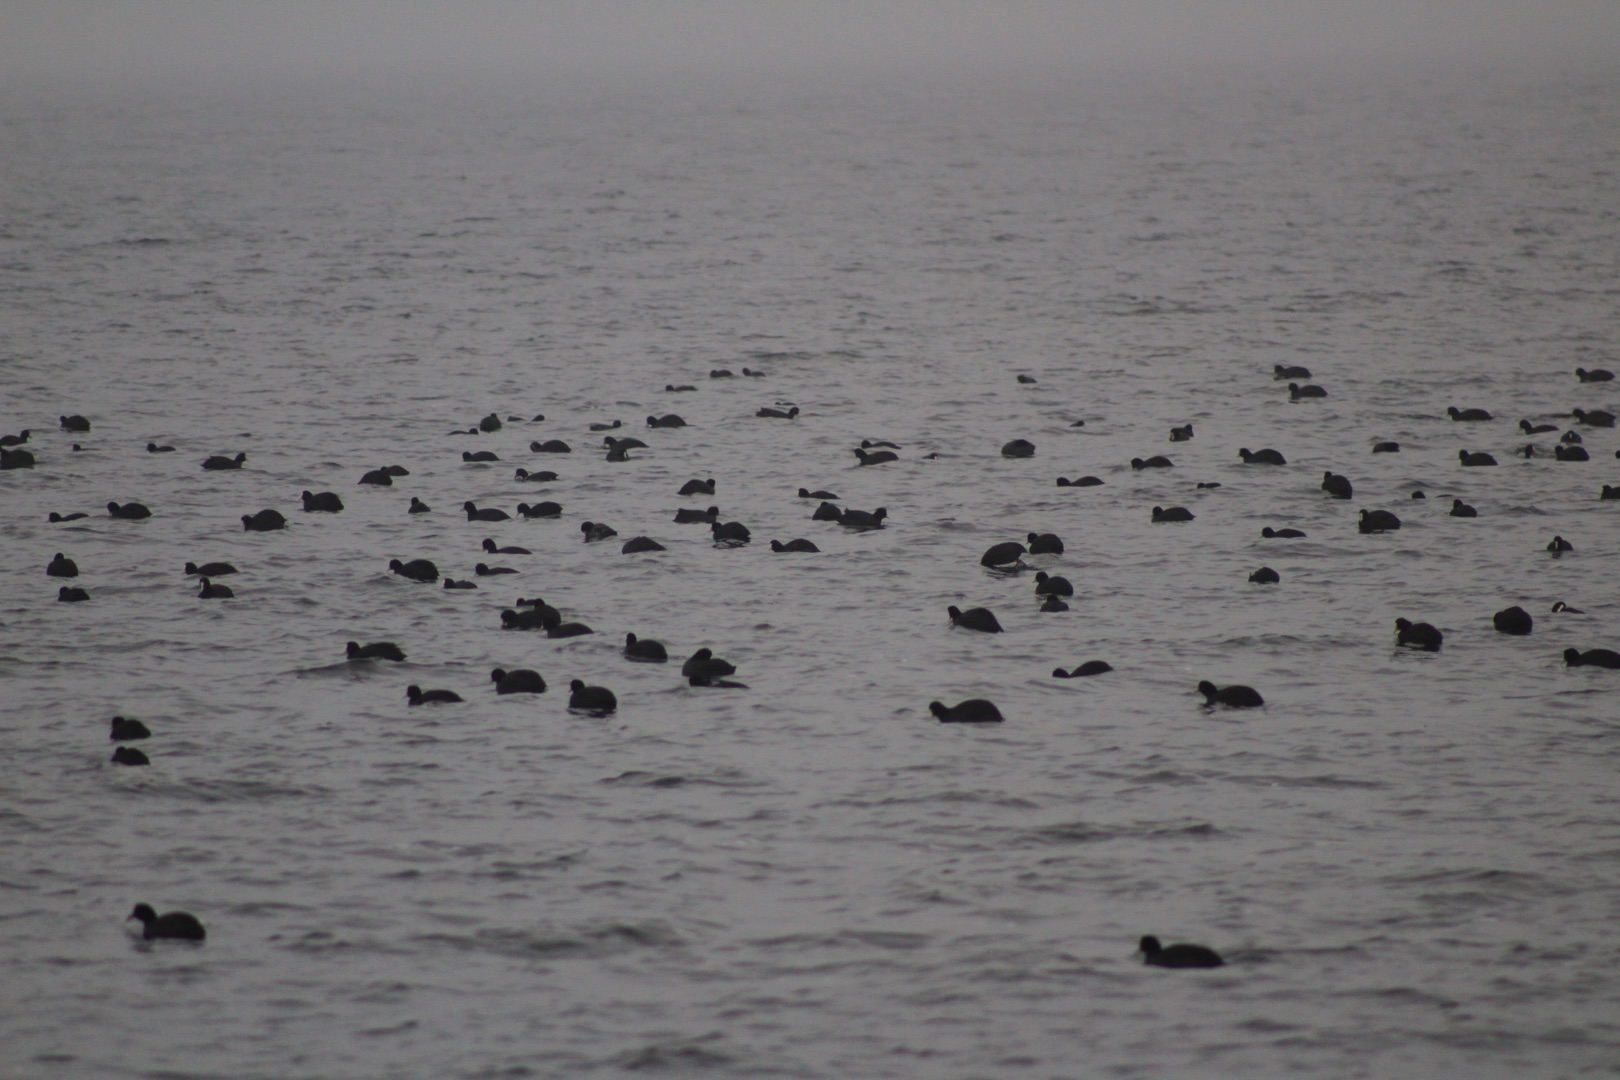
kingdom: Animalia
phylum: Chordata
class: Aves
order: Gruiformes
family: Rallidae
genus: Fulica
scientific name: Fulica atra
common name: Blishøne
